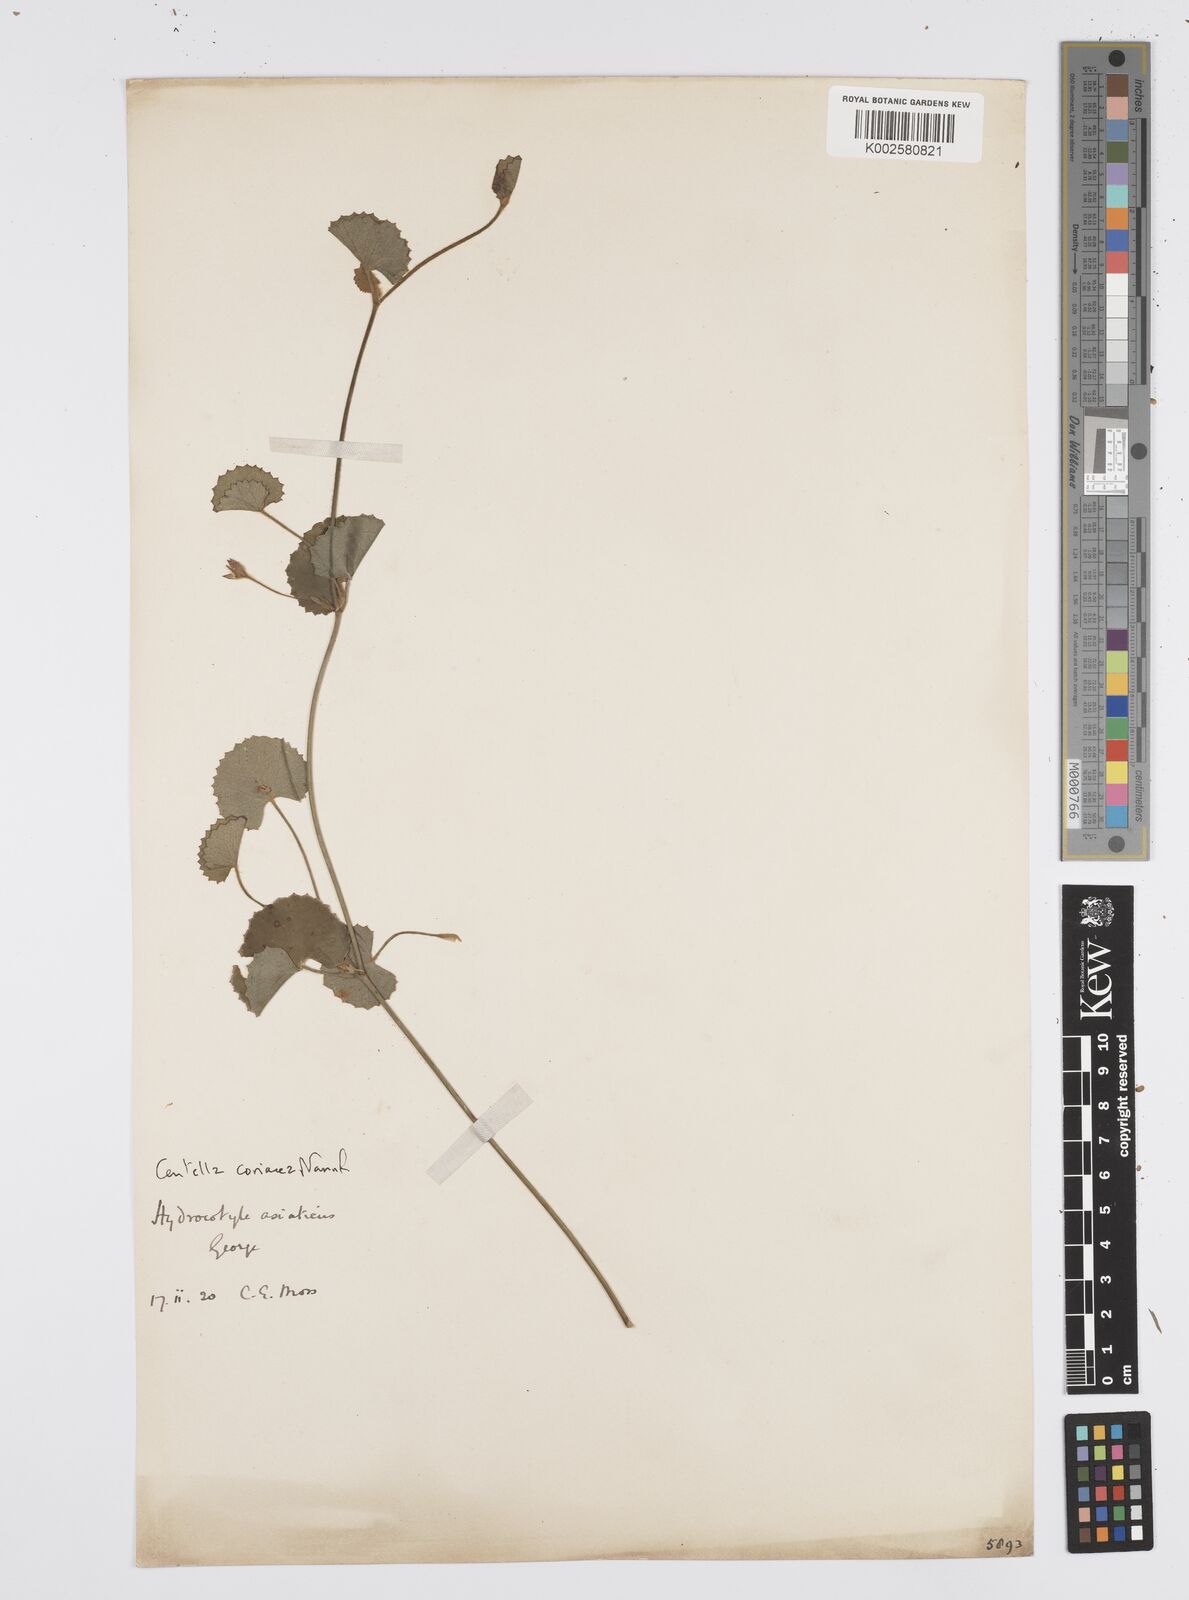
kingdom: Plantae
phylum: Tracheophyta
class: Magnoliopsida
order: Apiales
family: Apiaceae
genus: Centella
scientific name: Centella coriacea
